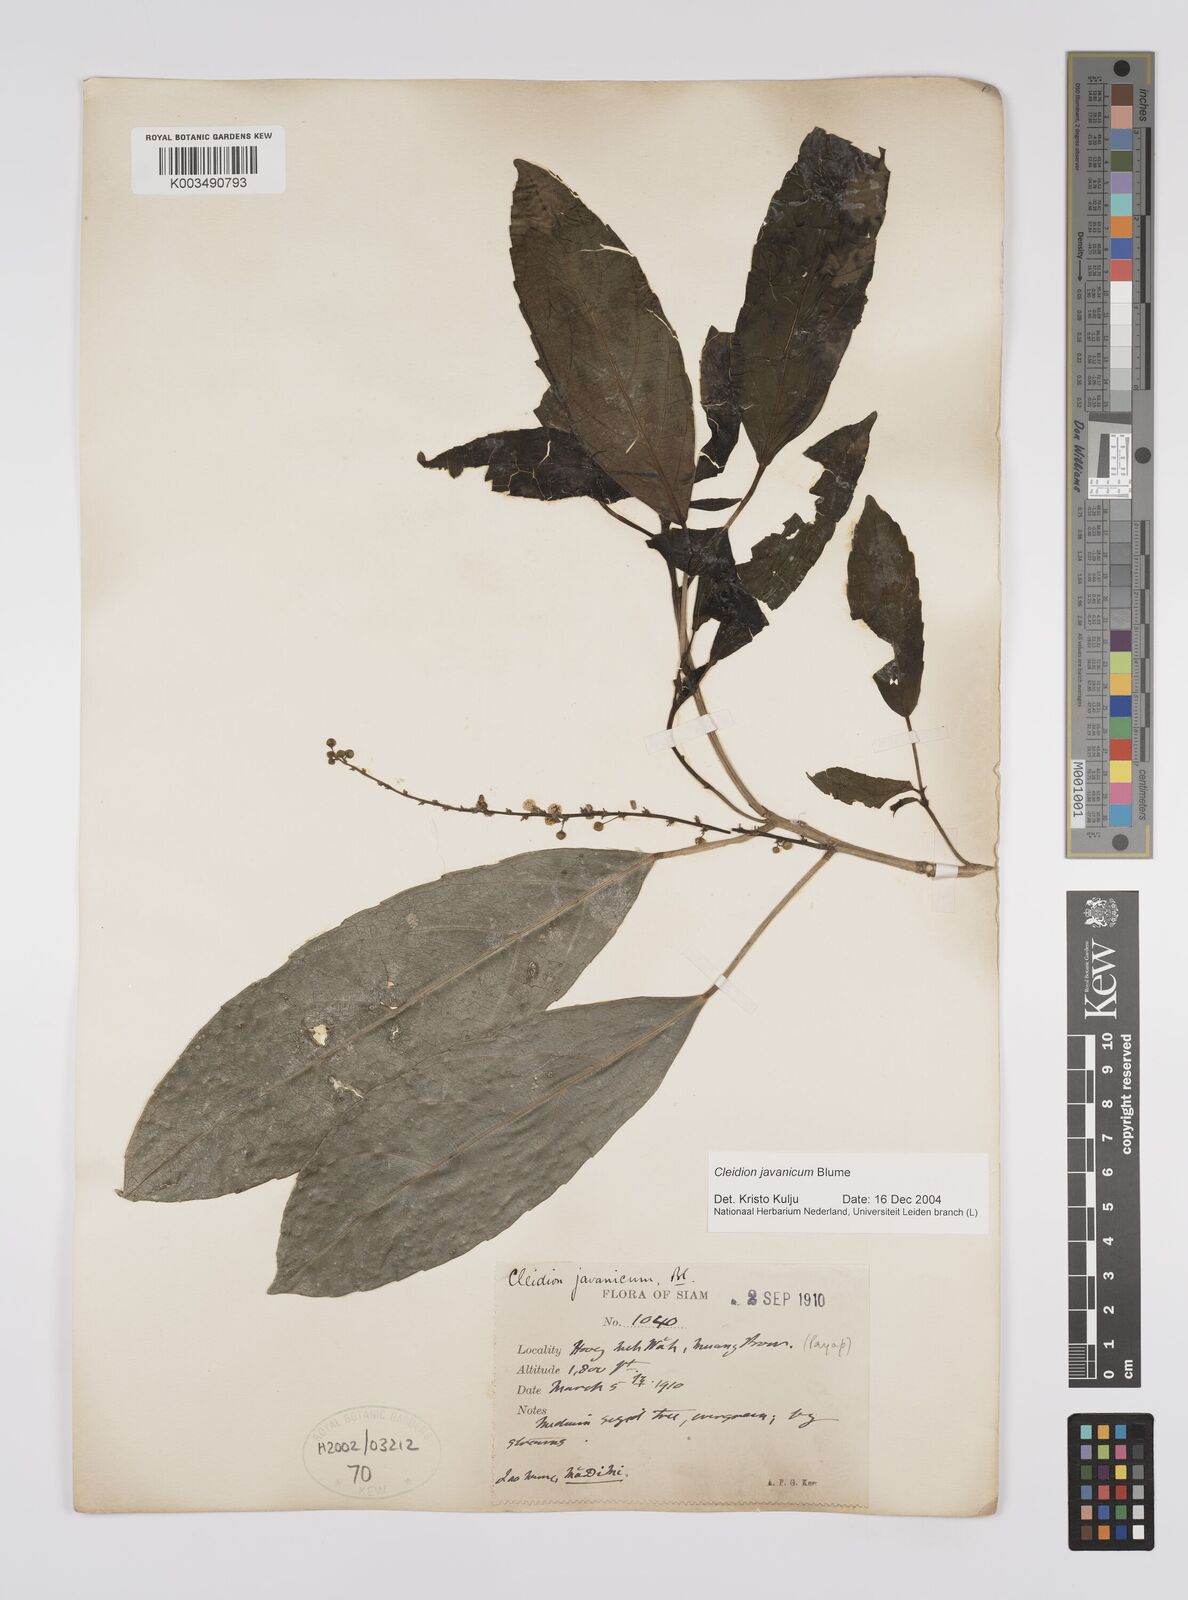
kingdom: Plantae
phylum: Tracheophyta
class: Magnoliopsida
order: Malpighiales
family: Euphorbiaceae
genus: Cleidion
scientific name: Cleidion javanicum
